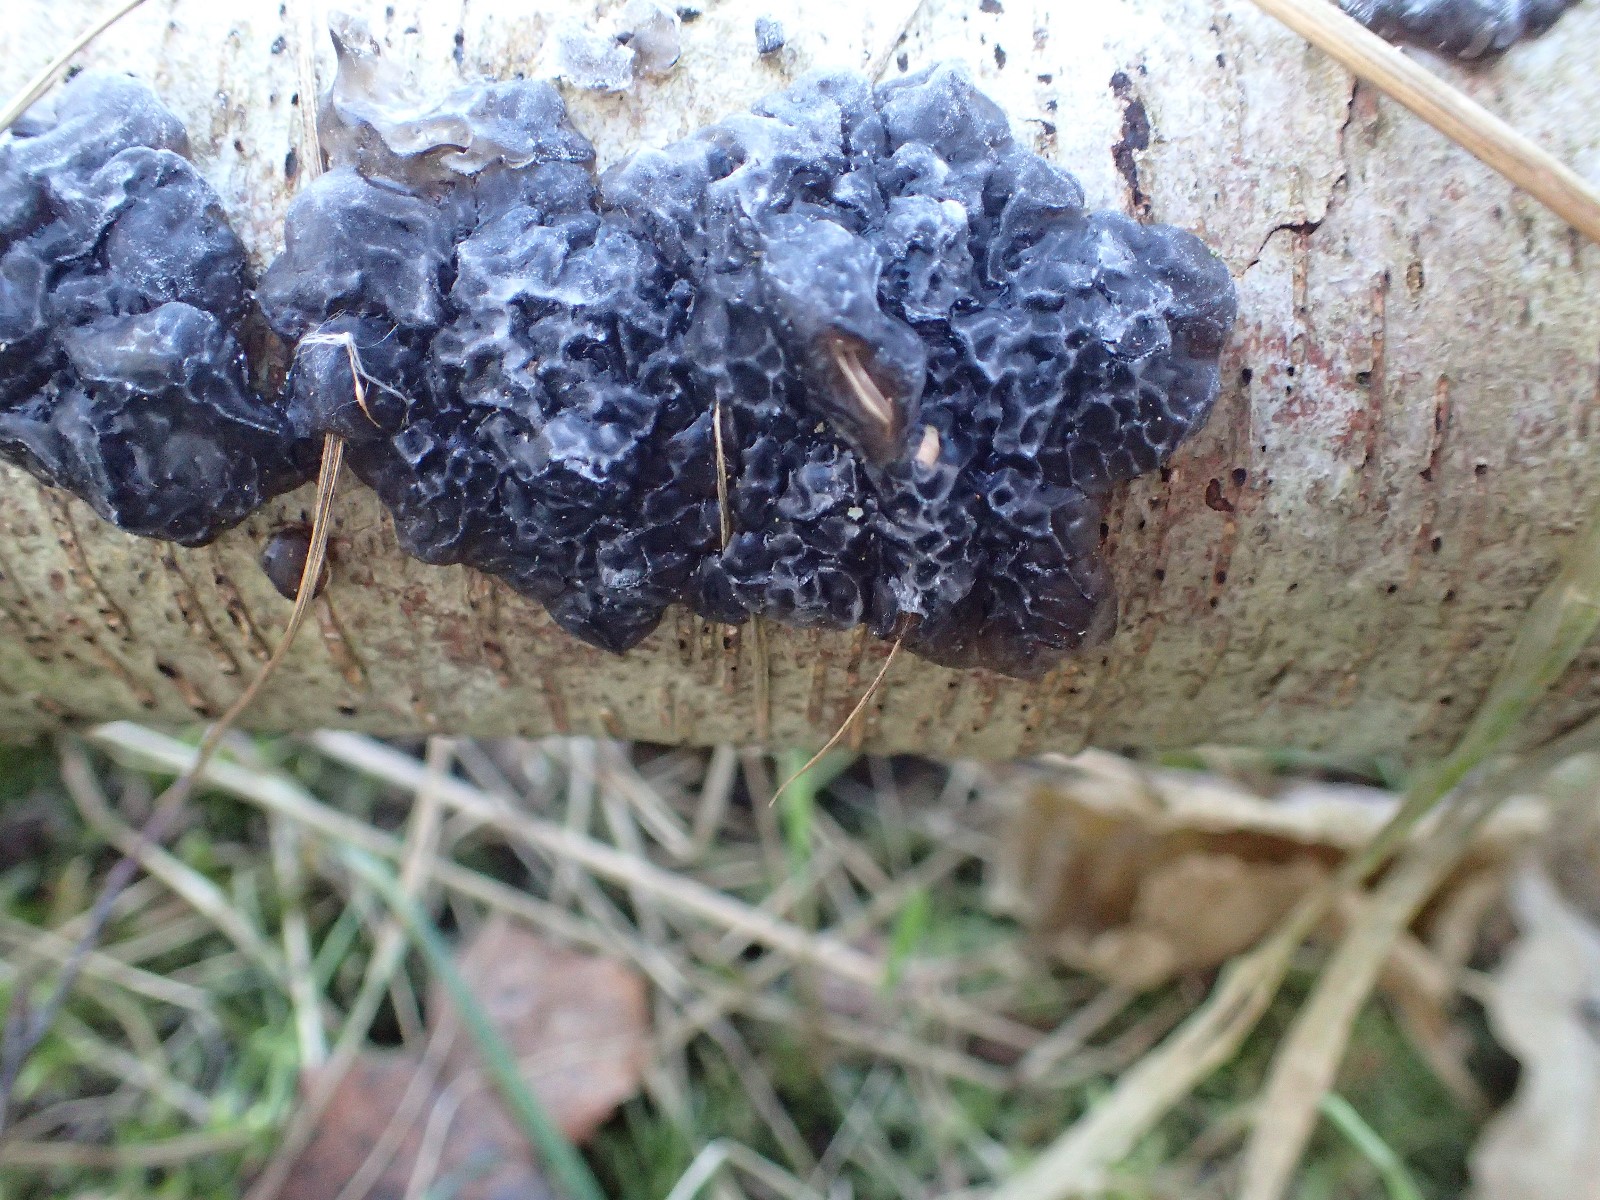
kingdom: Fungi
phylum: Basidiomycota
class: Agaricomycetes
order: Auriculariales
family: Auriculariaceae
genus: Exidia
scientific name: Exidia nigricans
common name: almindelig bævretop
